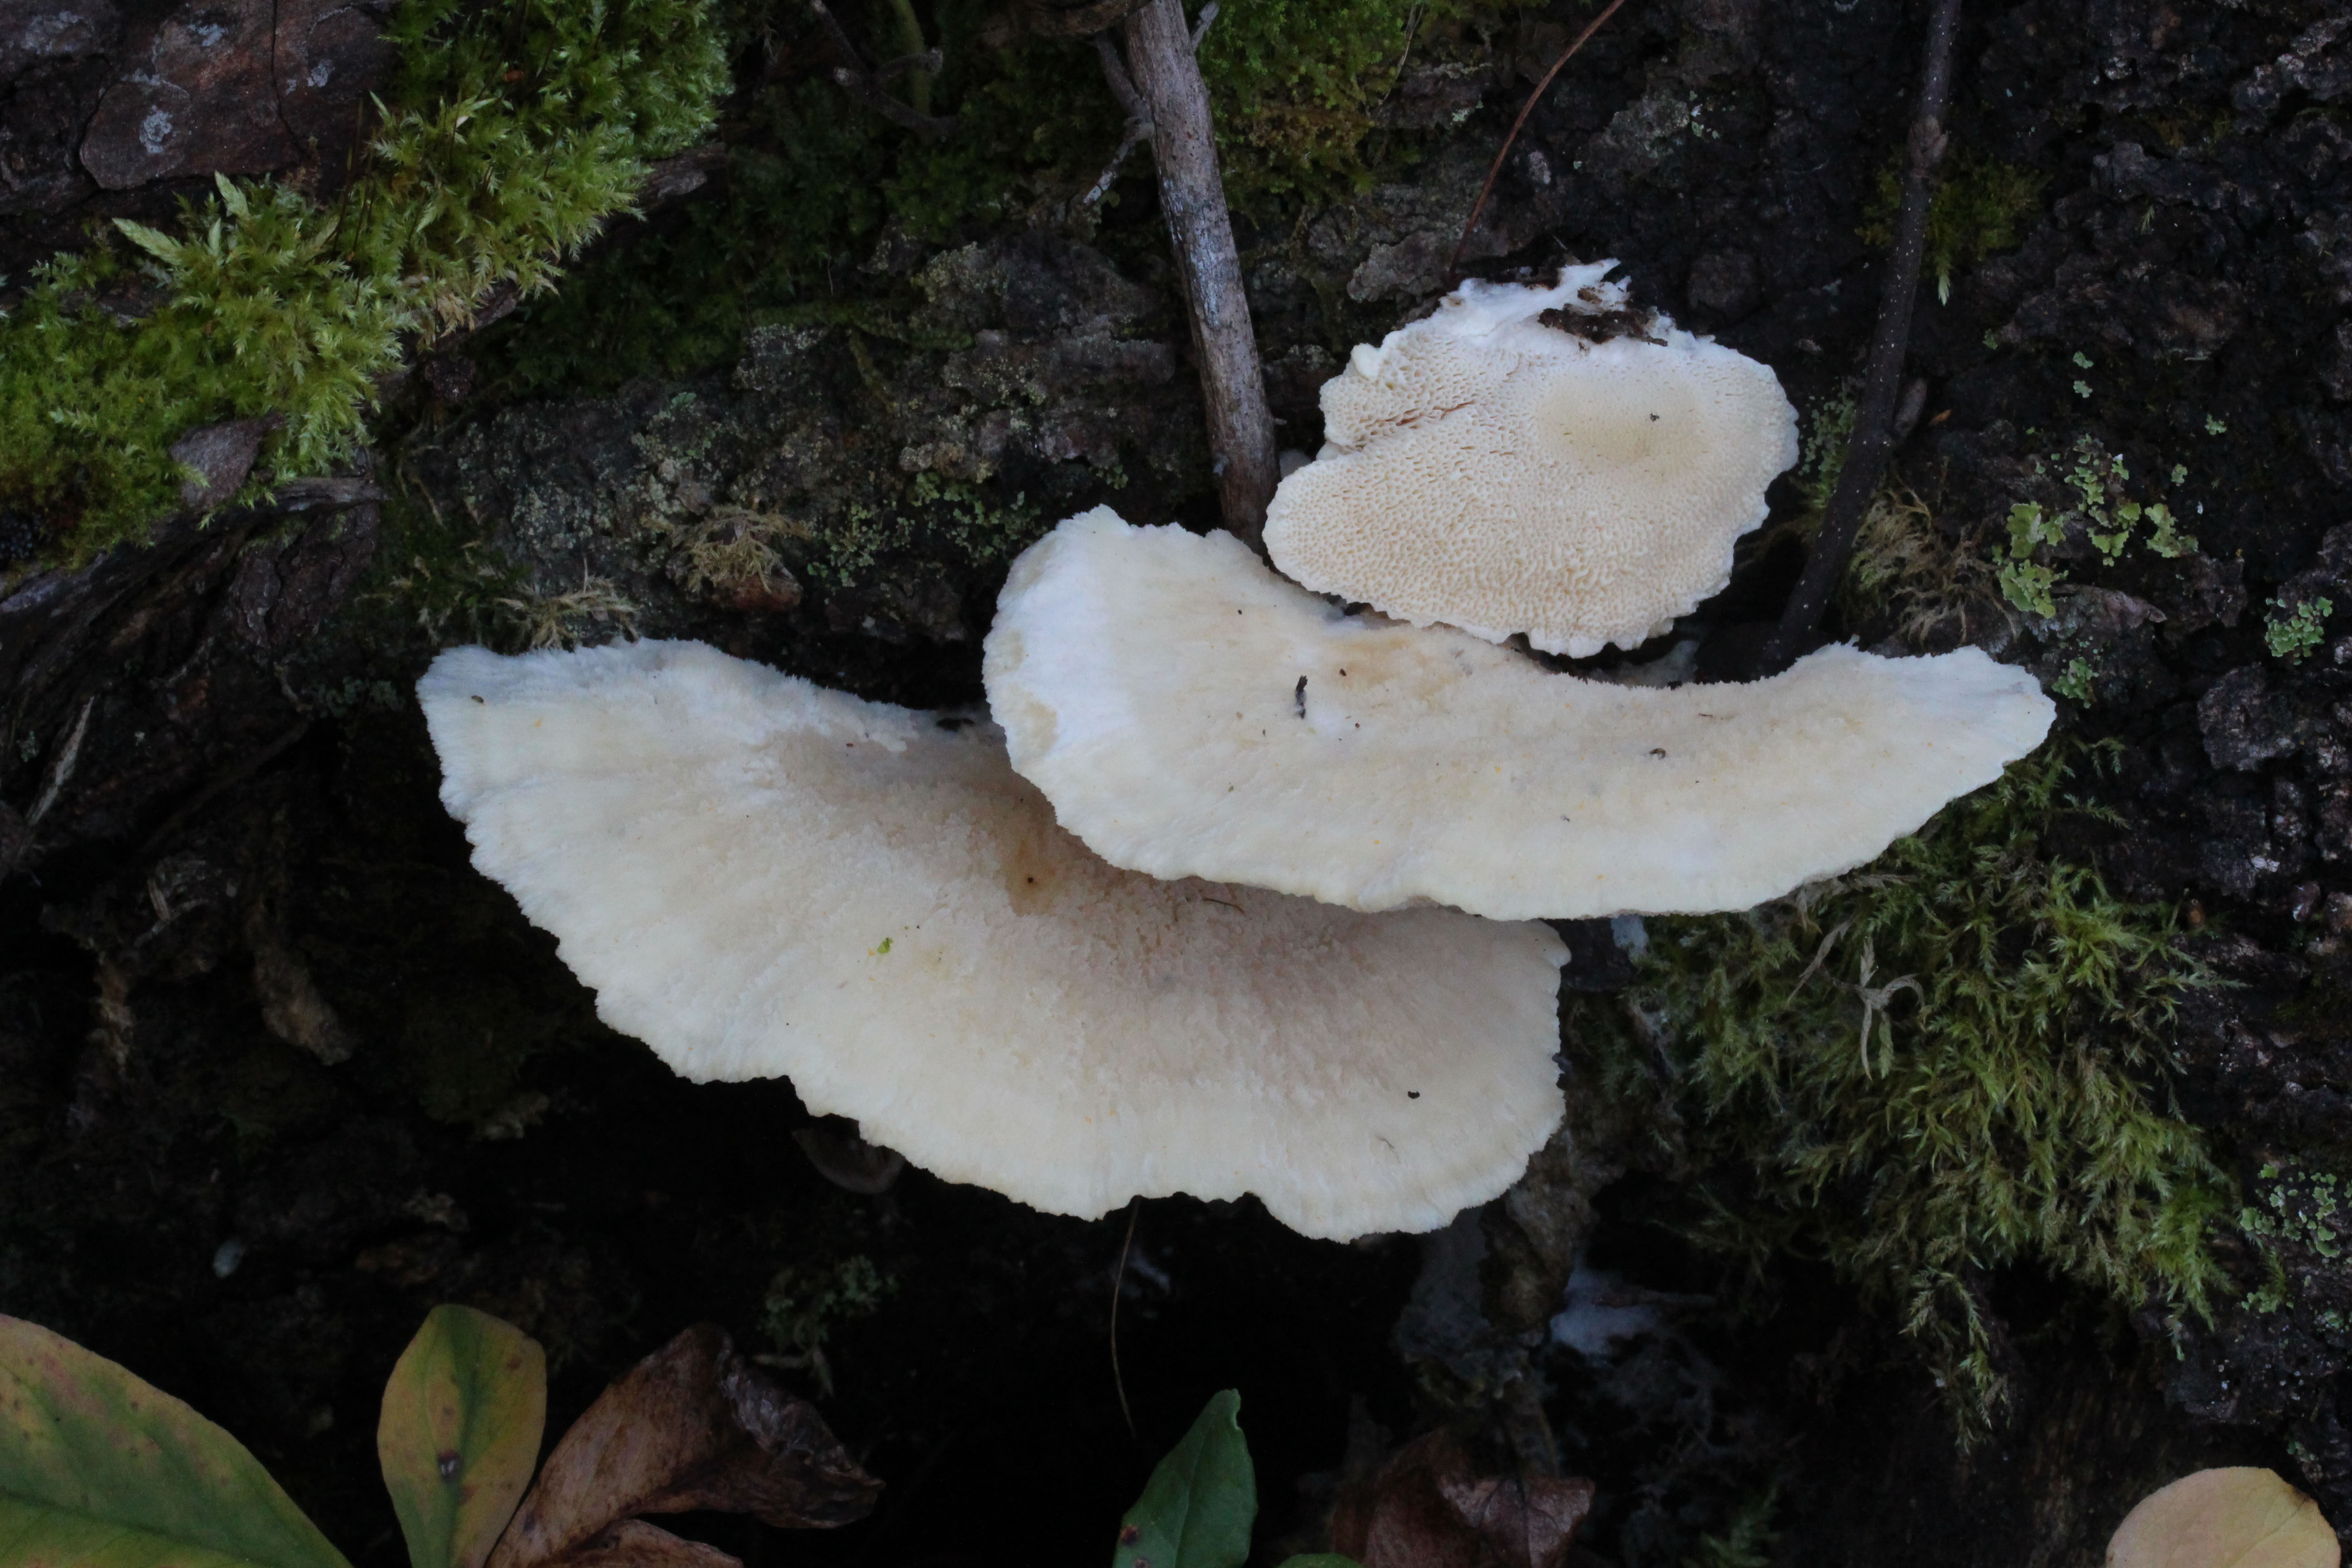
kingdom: Fungi
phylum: Basidiomycota
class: Agaricomycetes
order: Polyporales
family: Fomitopsidaceae
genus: Climacocystis
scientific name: Climacocystis borealis
